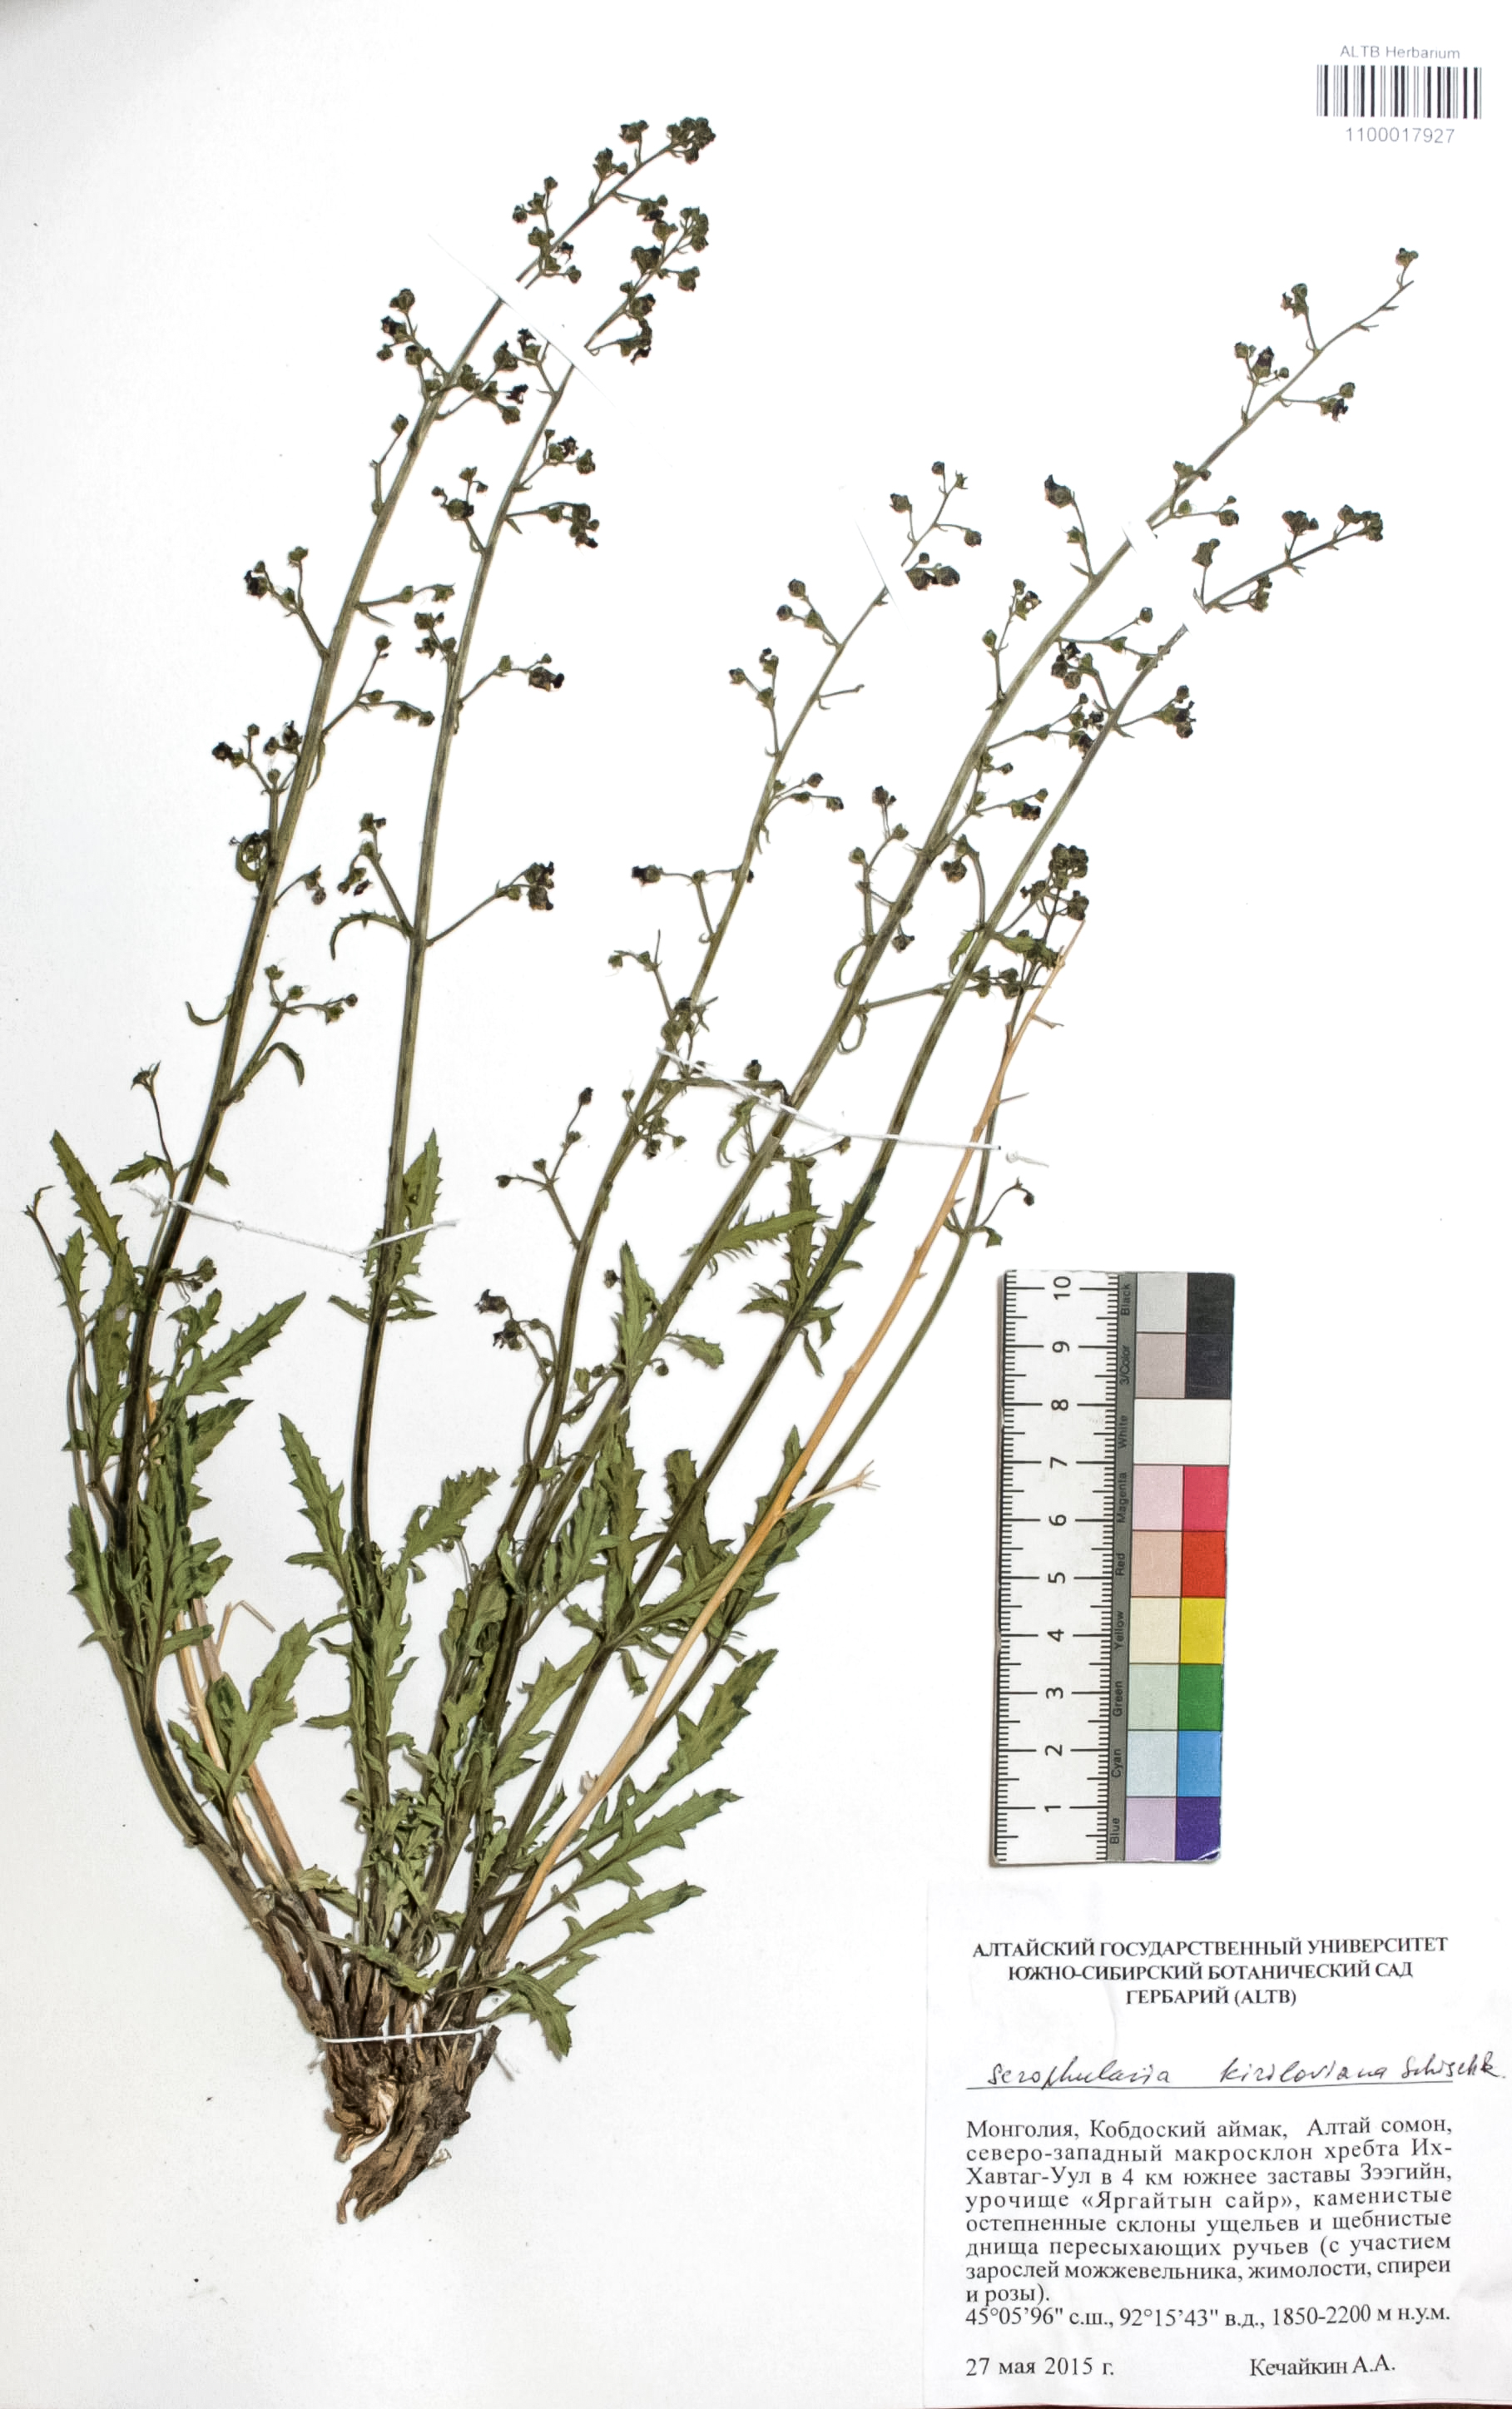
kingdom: Plantae
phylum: Tracheophyta
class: Magnoliopsida
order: Lamiales
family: Scrophulariaceae
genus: Scrophularia
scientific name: Scrophularia kiriloviana
